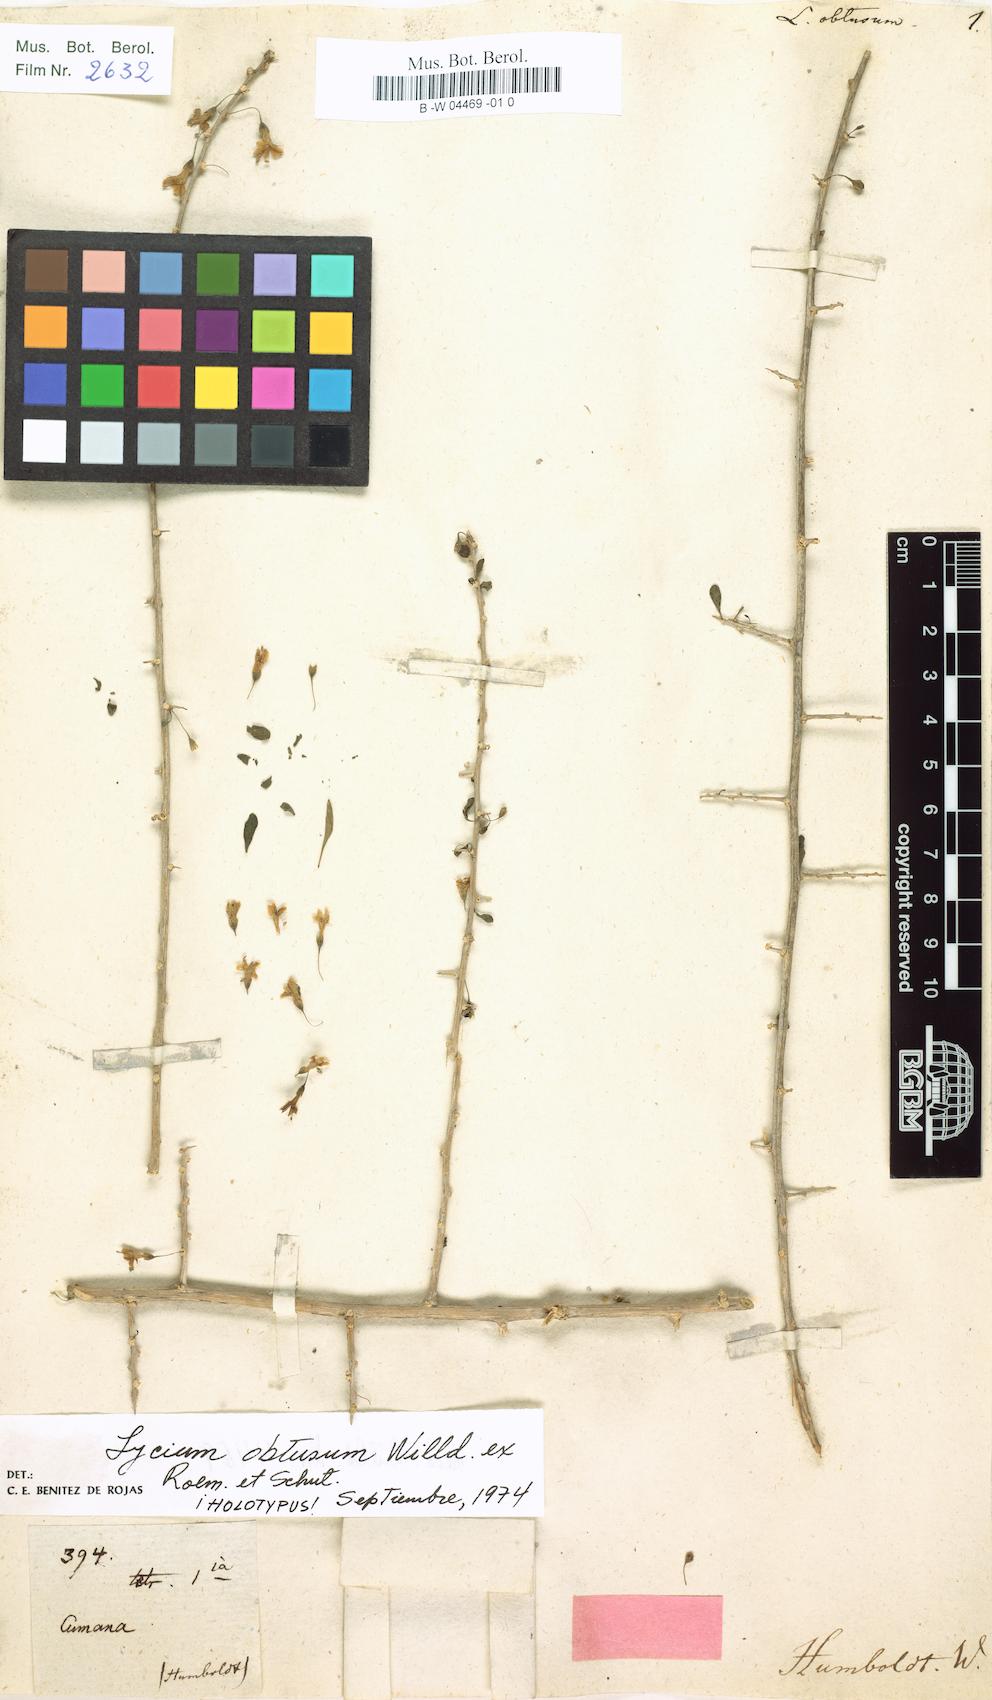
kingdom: Plantae
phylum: Tracheophyta
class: Magnoliopsida
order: Solanales
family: Solanaceae
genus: Lycium
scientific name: Lycium
